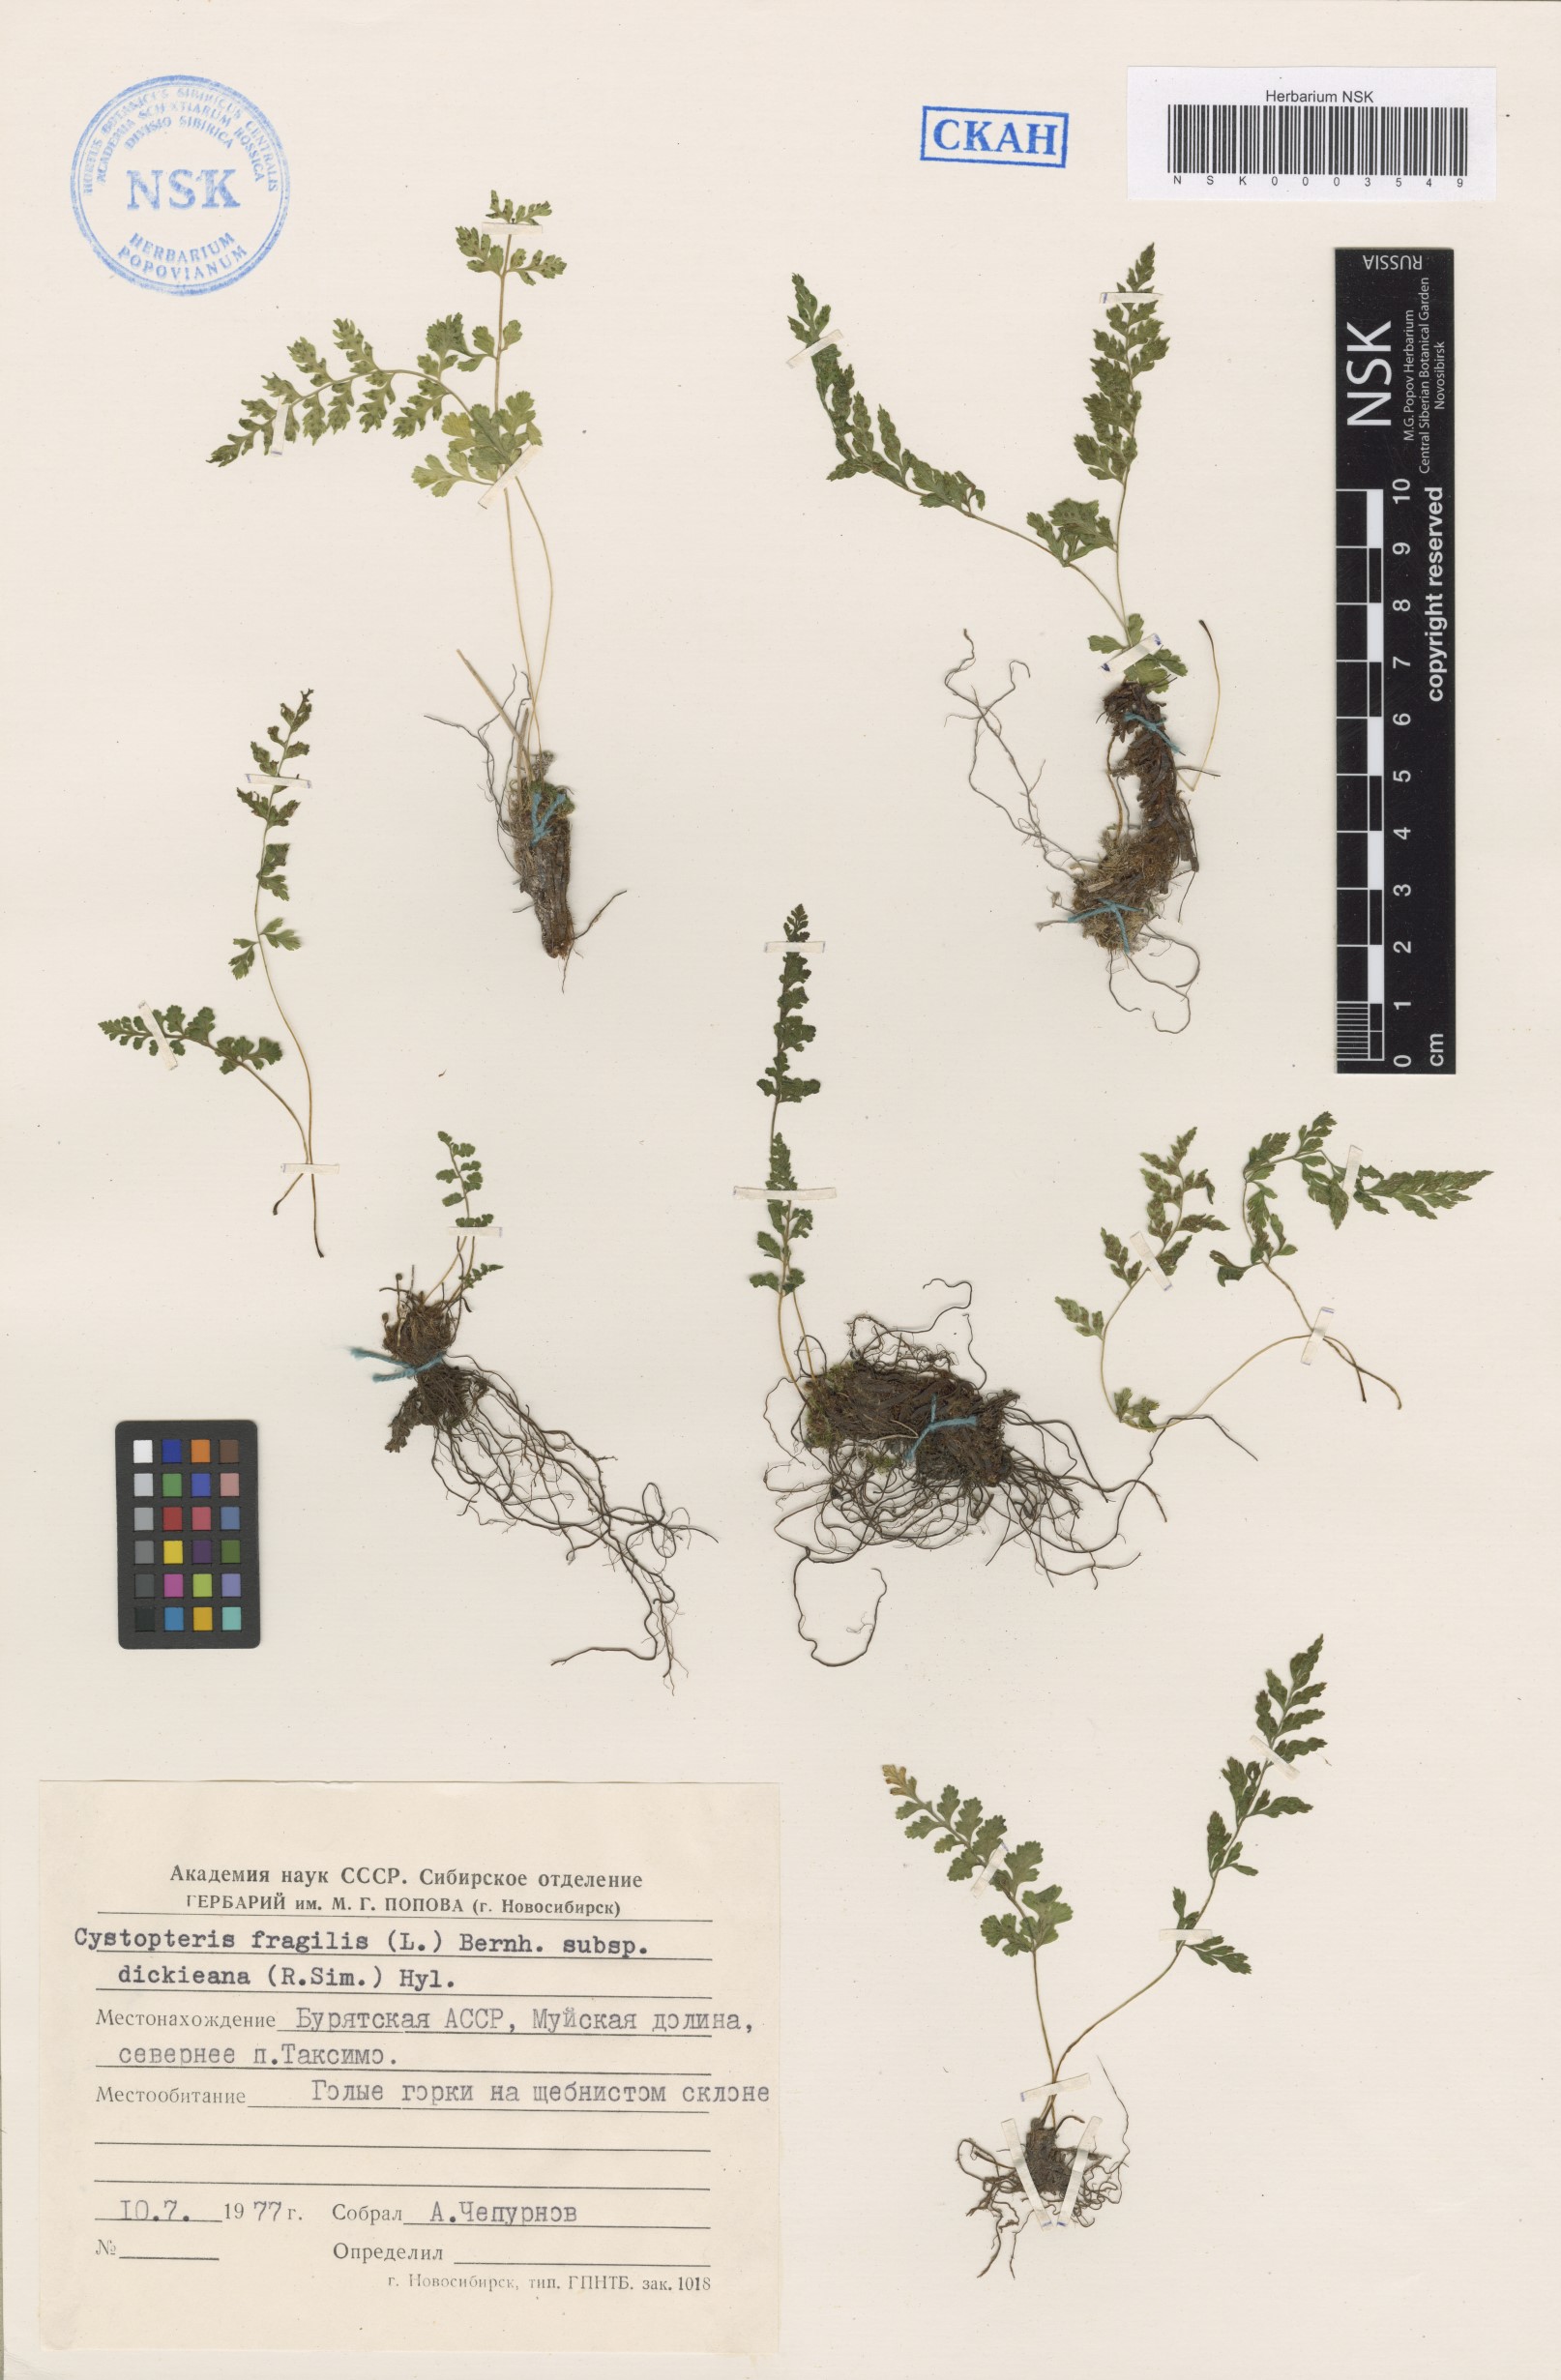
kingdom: Plantae
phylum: Tracheophyta
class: Polypodiopsida
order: Polypodiales
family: Cystopteridaceae
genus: Cystopteris
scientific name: Cystopteris fragilis
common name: Brittle bladder fern
